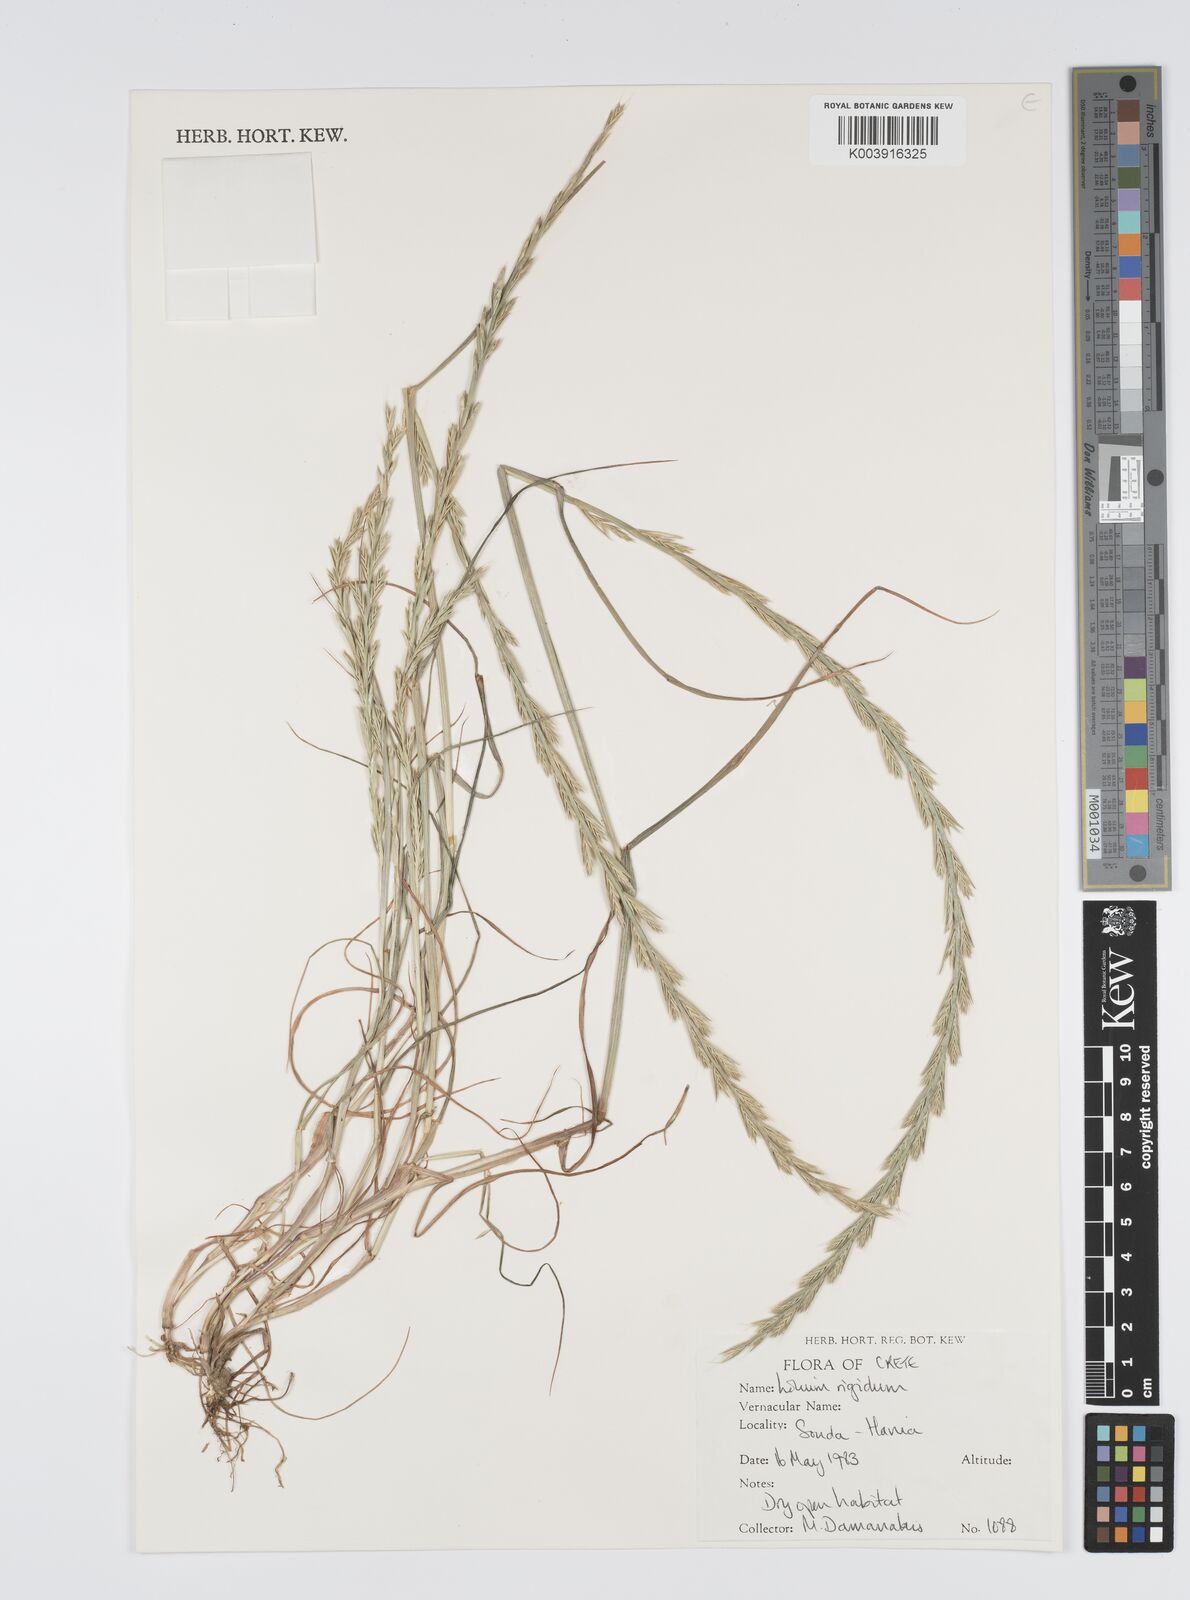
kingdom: Plantae
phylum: Tracheophyta
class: Liliopsida
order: Poales
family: Poaceae
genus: Lolium
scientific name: Lolium rigidum
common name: Wimmera ryegrass
